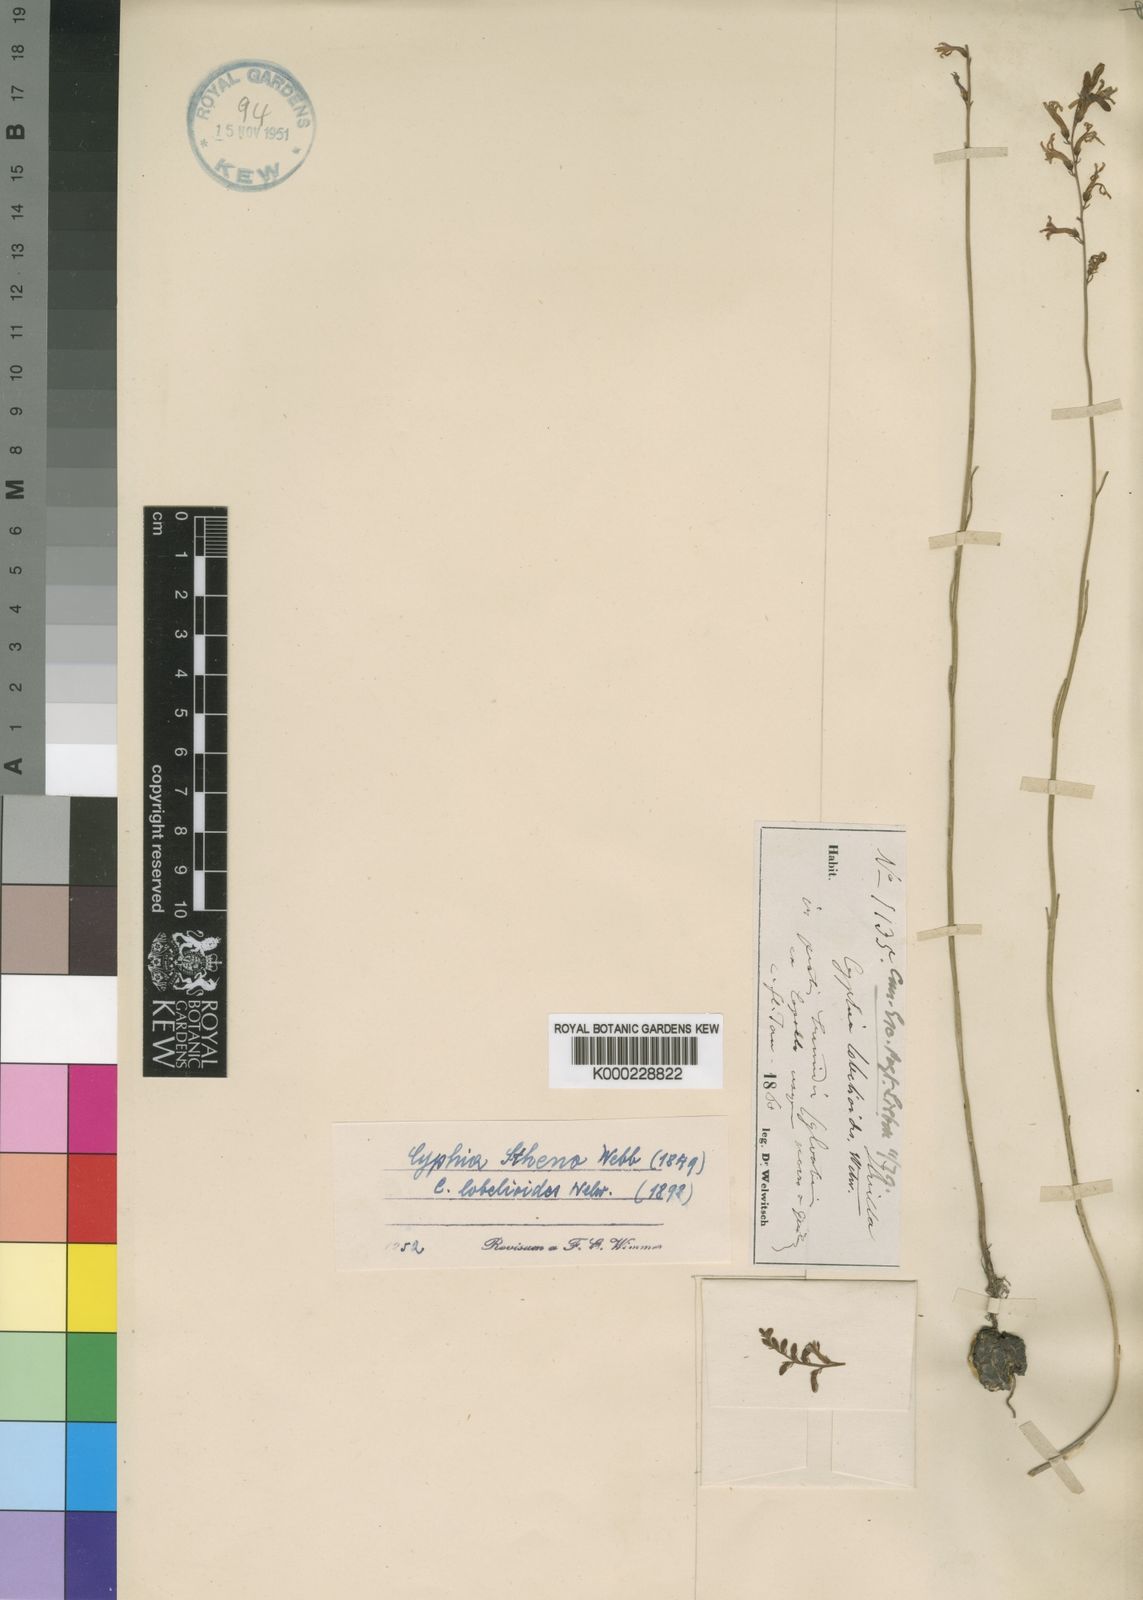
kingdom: Plantae
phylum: Tracheophyta
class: Magnoliopsida
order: Asterales
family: Campanulaceae
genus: Cyphia
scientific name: Cyphia stheno
